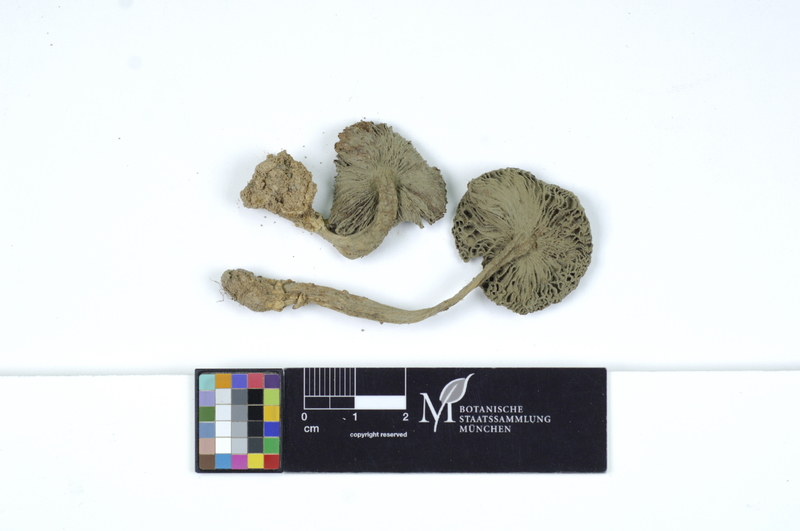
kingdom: Fungi
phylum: Basidiomycota
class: Agaricomycetes
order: Agaricales
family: Amanitaceae
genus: Amanita
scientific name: Amanita gemmata
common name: Jewelled amanita
